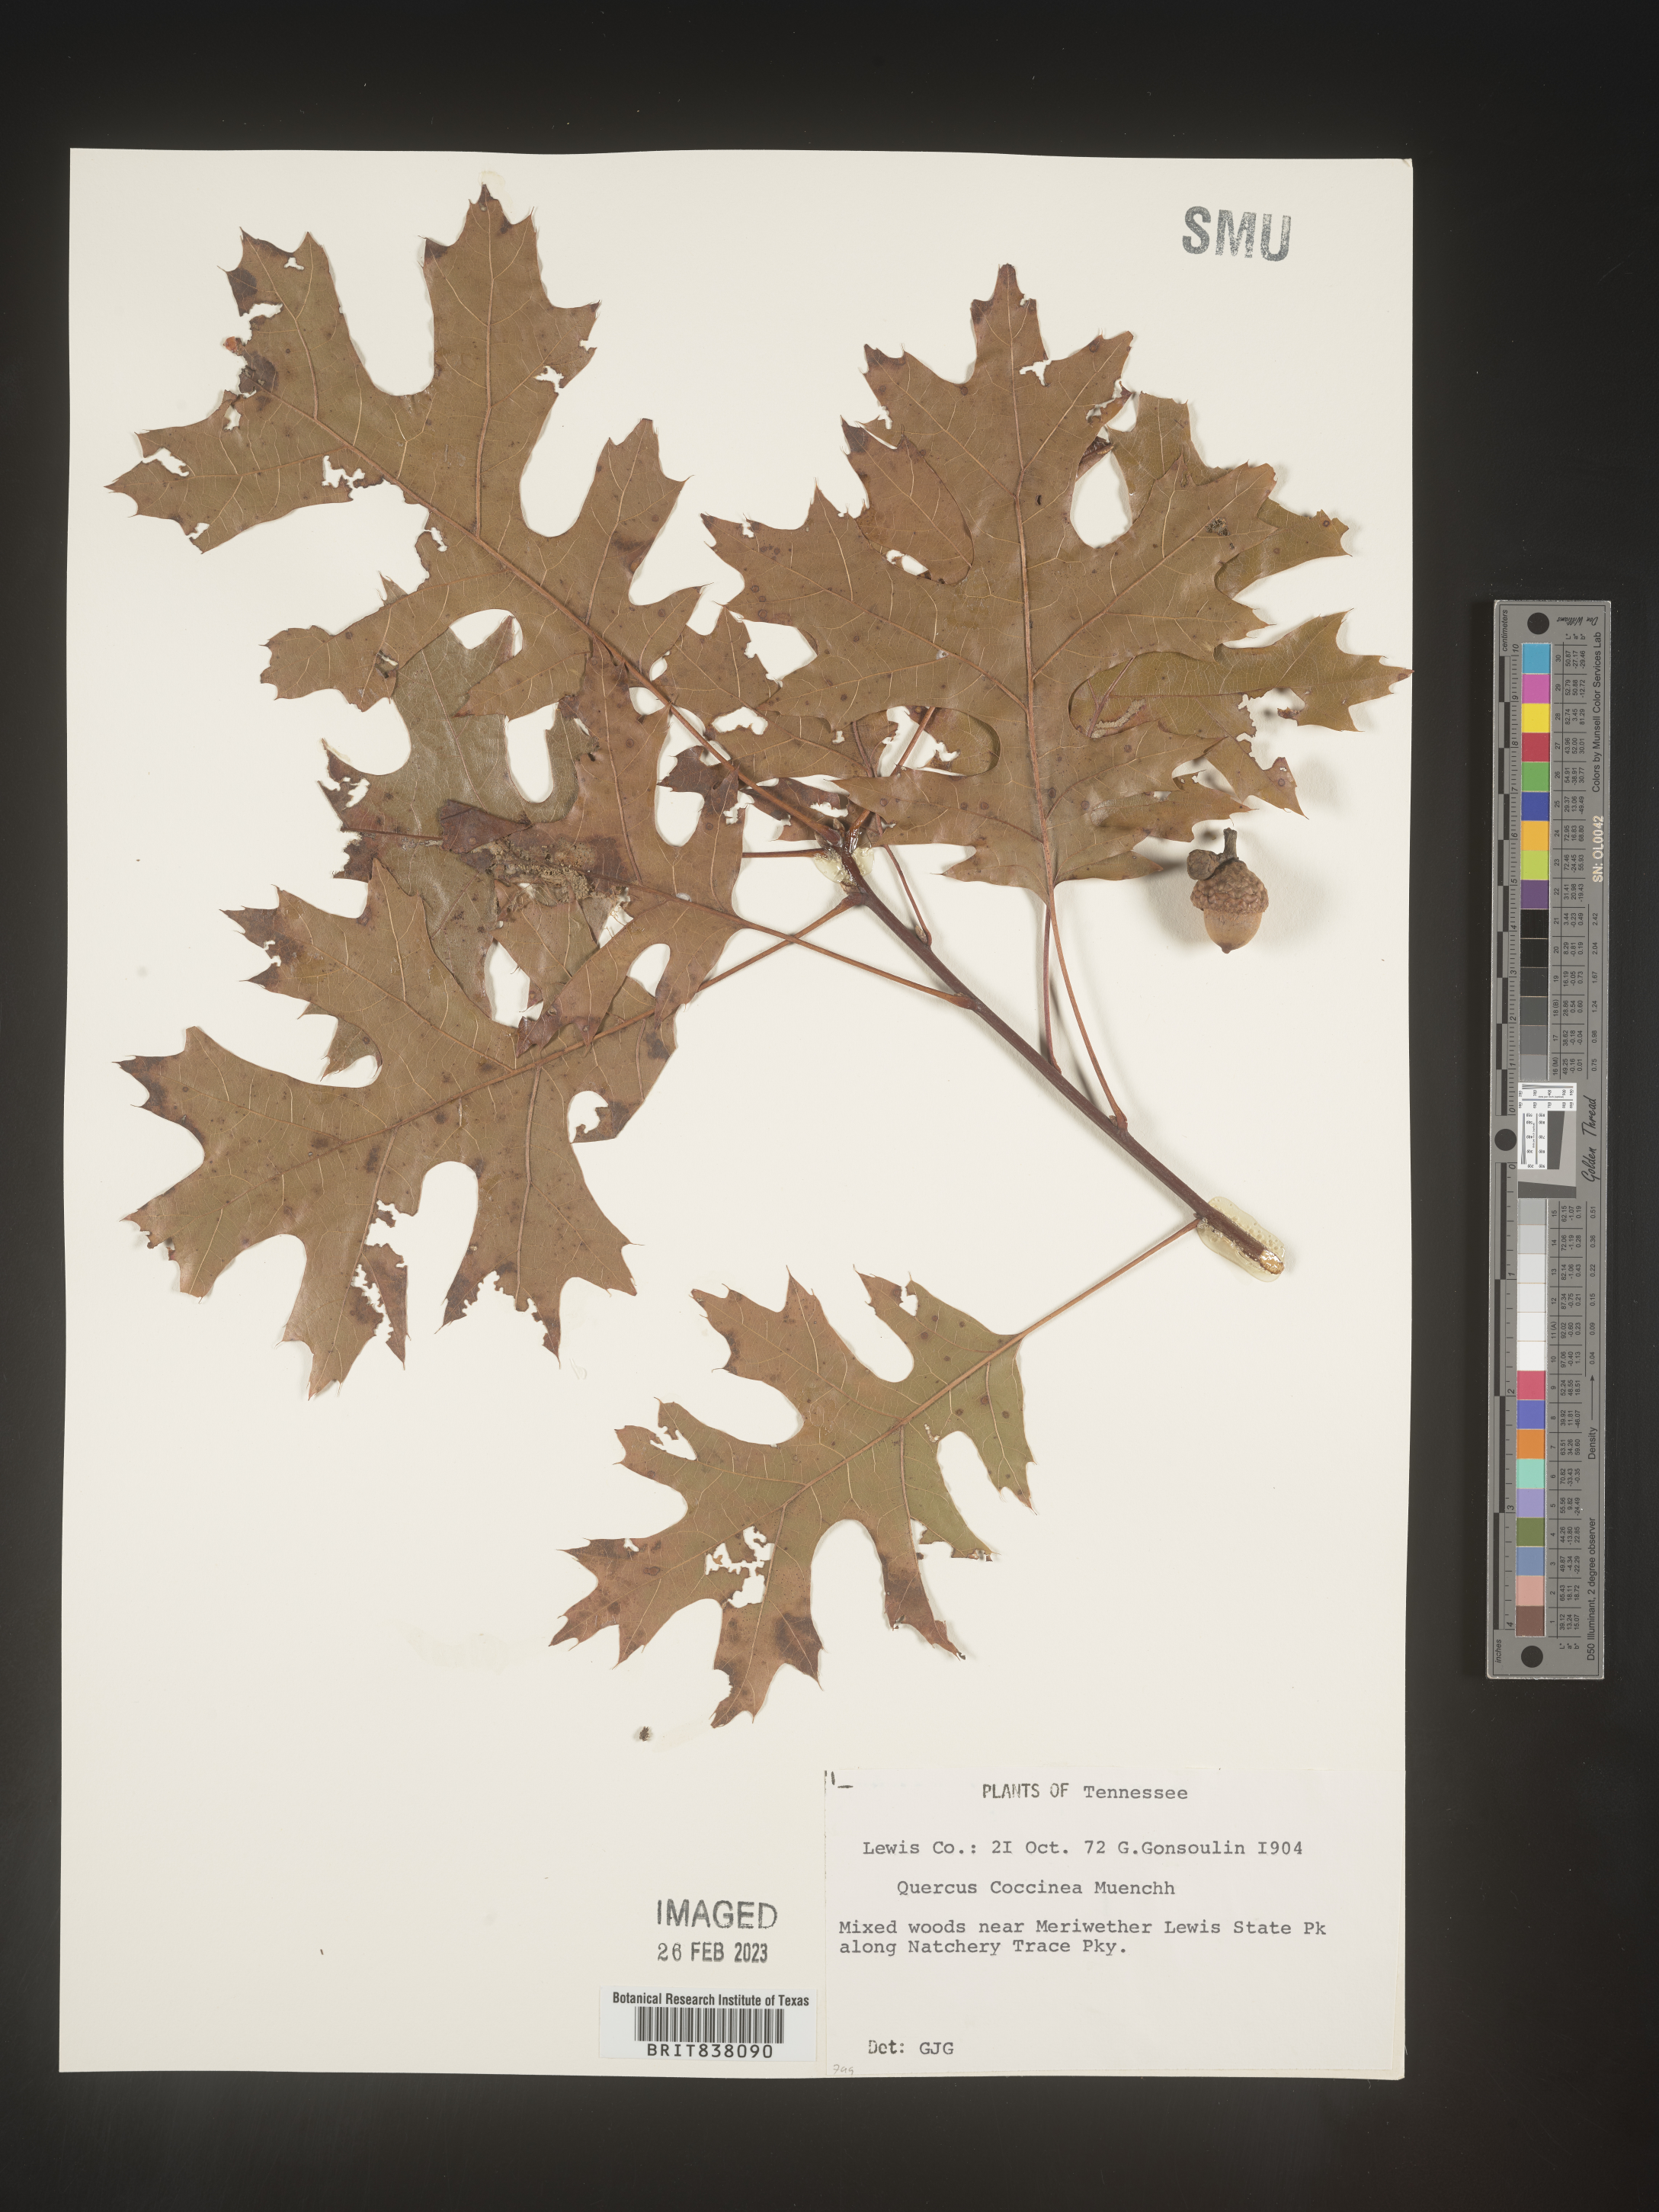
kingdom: Plantae
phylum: Tracheophyta
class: Magnoliopsida
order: Fagales
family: Fagaceae
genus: Quercus
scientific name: Quercus coccinea
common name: Scarlet oak
